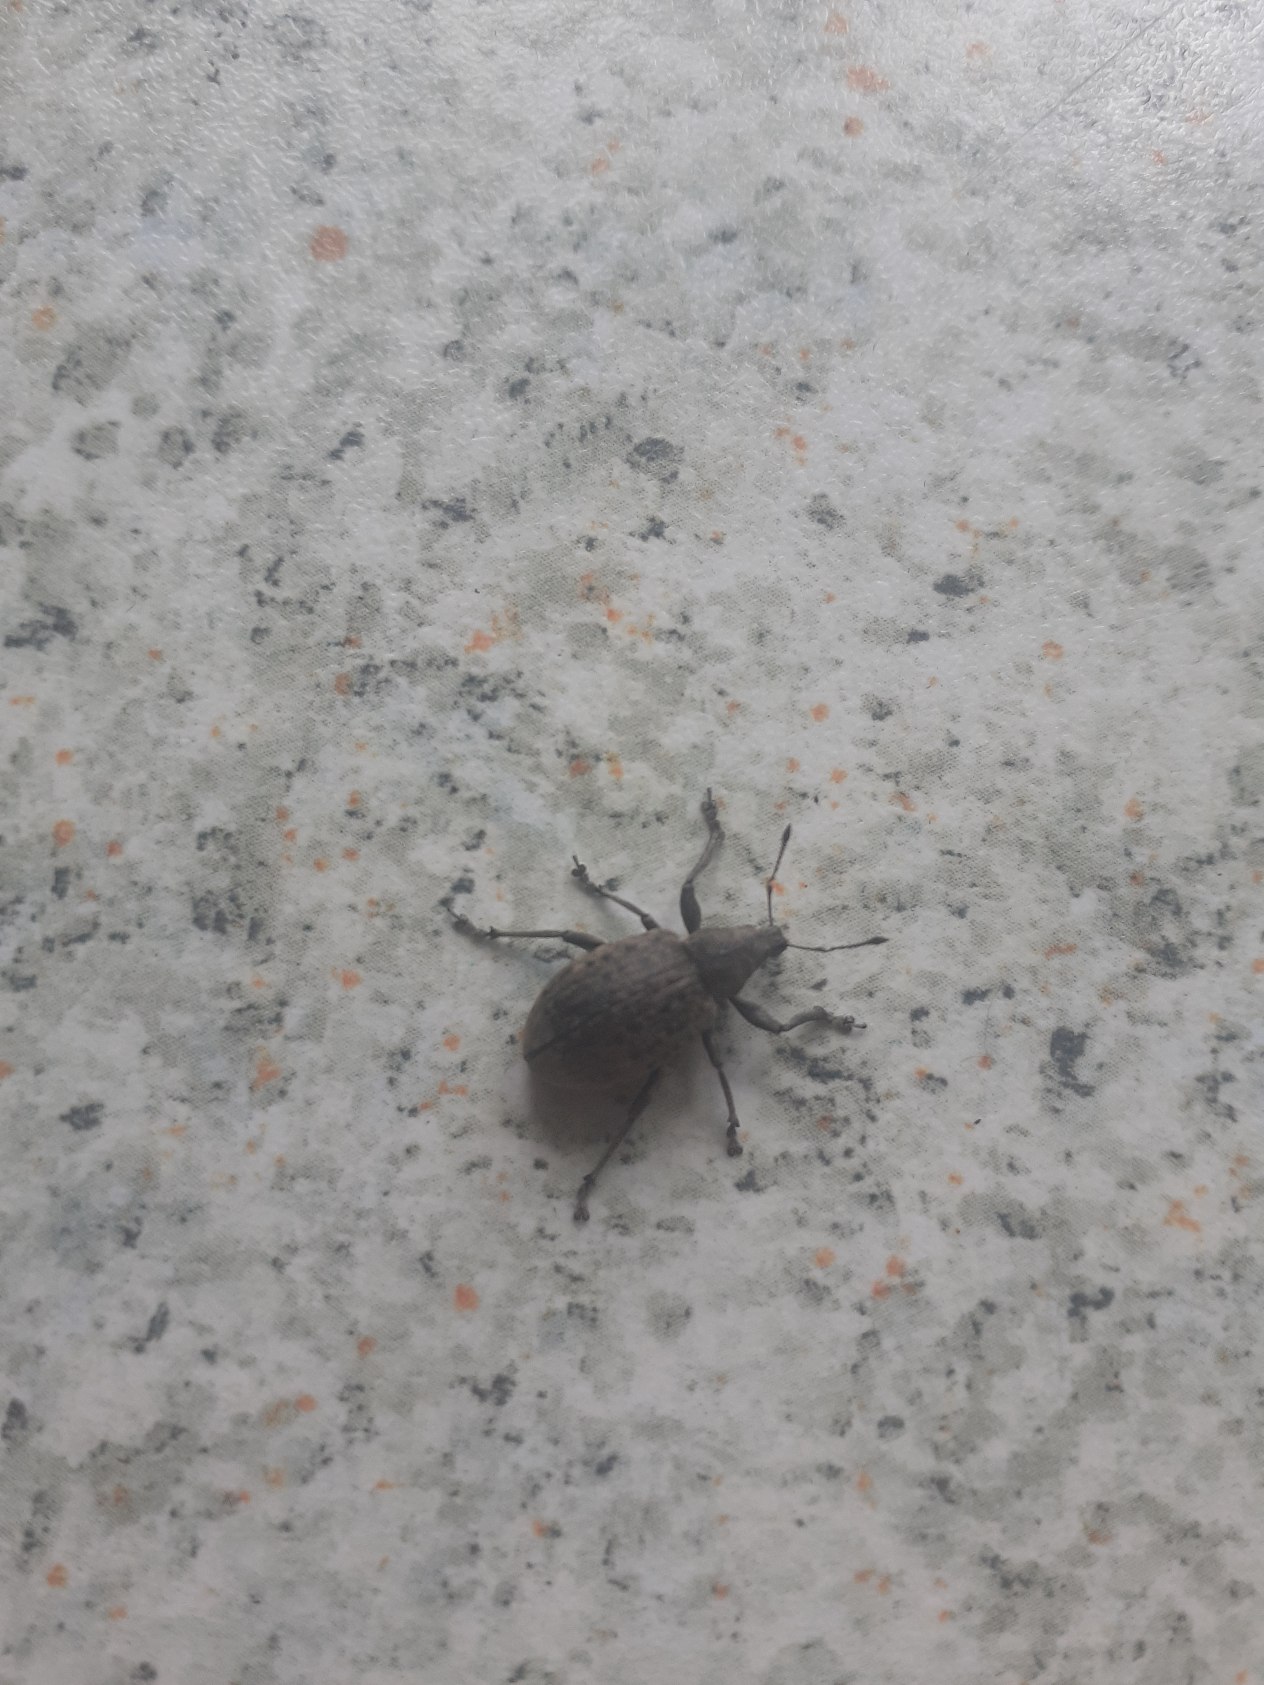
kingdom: Animalia
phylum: Arthropoda
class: Insecta
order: Coleoptera
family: Curculionidae
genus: Liophloeus
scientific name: Liophloeus tessulatus
